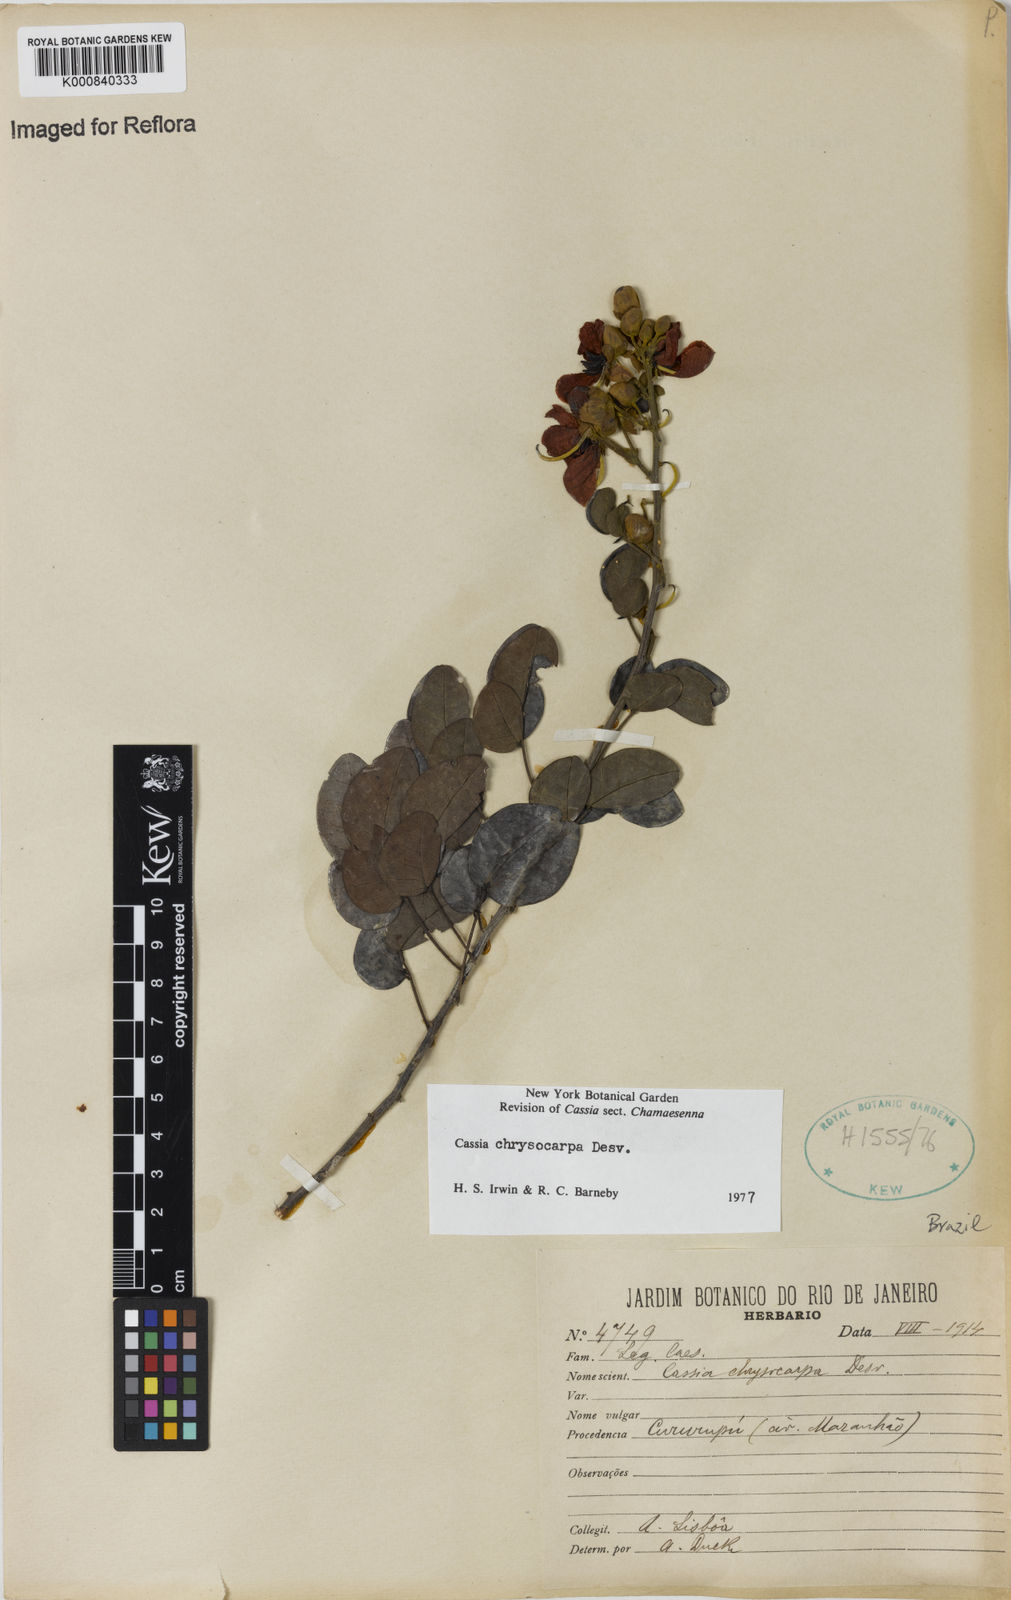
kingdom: Plantae
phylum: Tracheophyta
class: Magnoliopsida
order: Fabales
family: Fabaceae
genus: Senna
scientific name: Senna chrysocarpa
